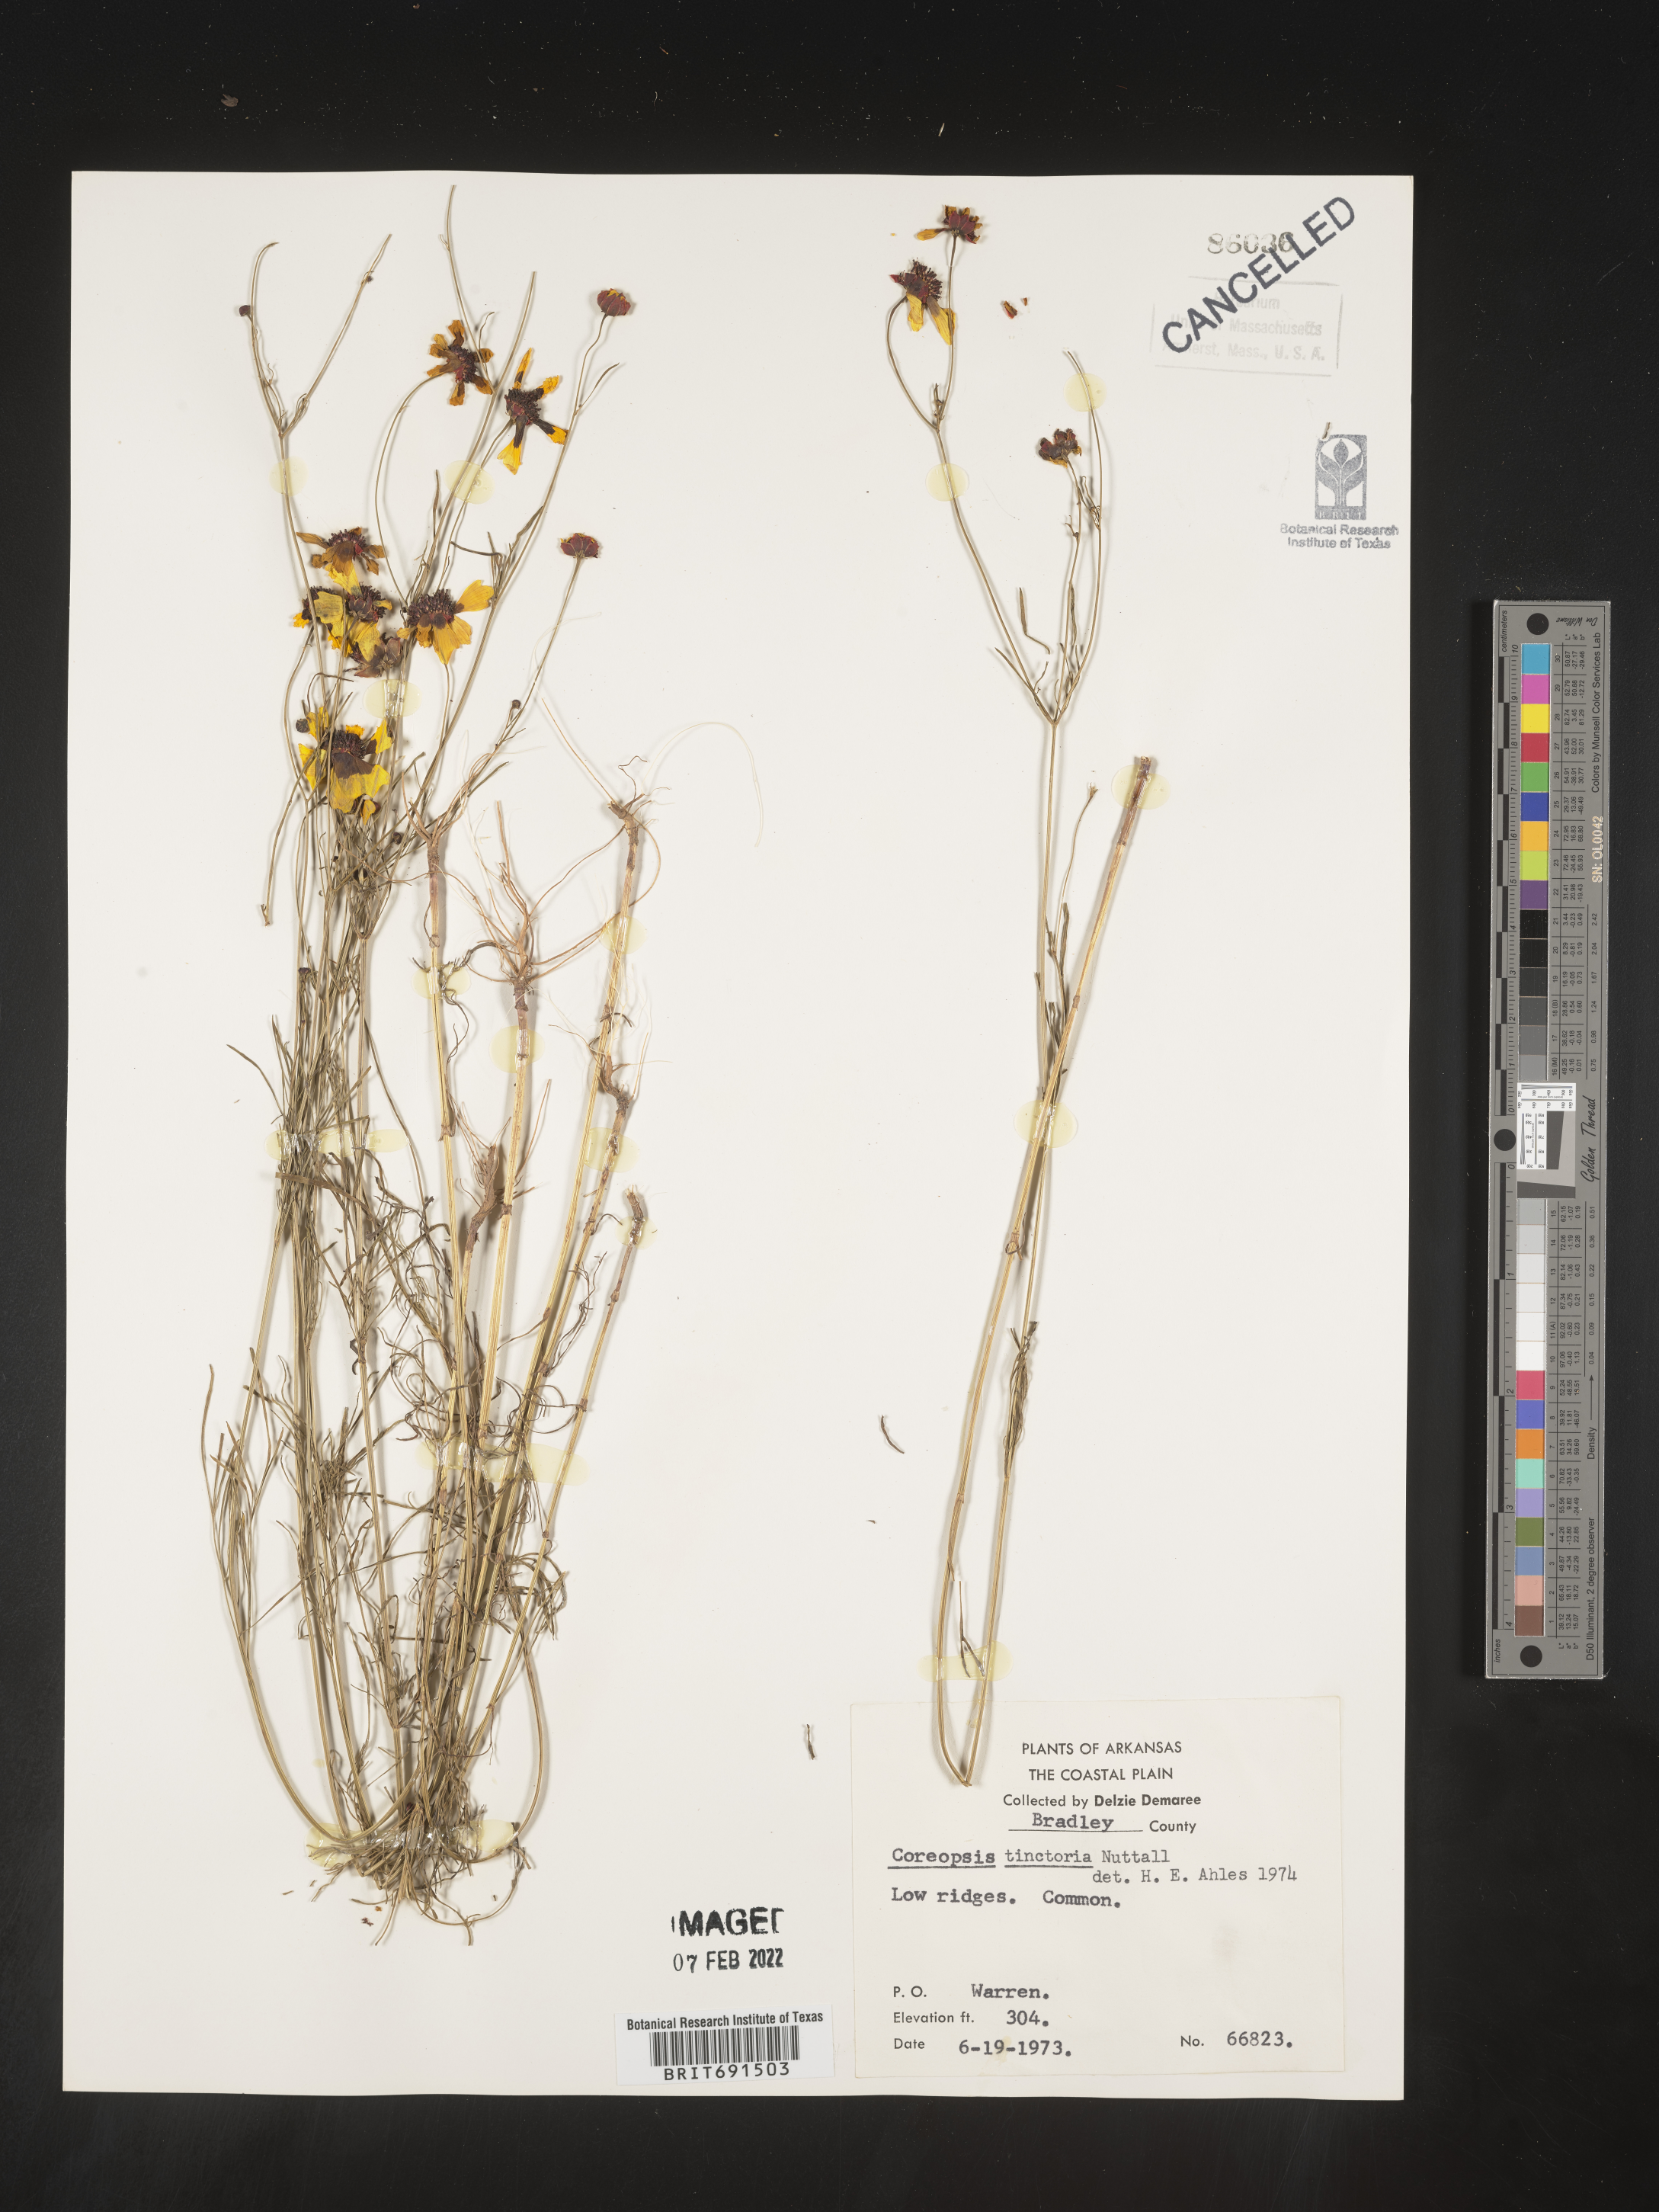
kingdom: Plantae
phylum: Tracheophyta
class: Magnoliopsida
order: Asterales
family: Asteraceae
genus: Coreopsis
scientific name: Coreopsis tinctoria
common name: Garden tickseed
